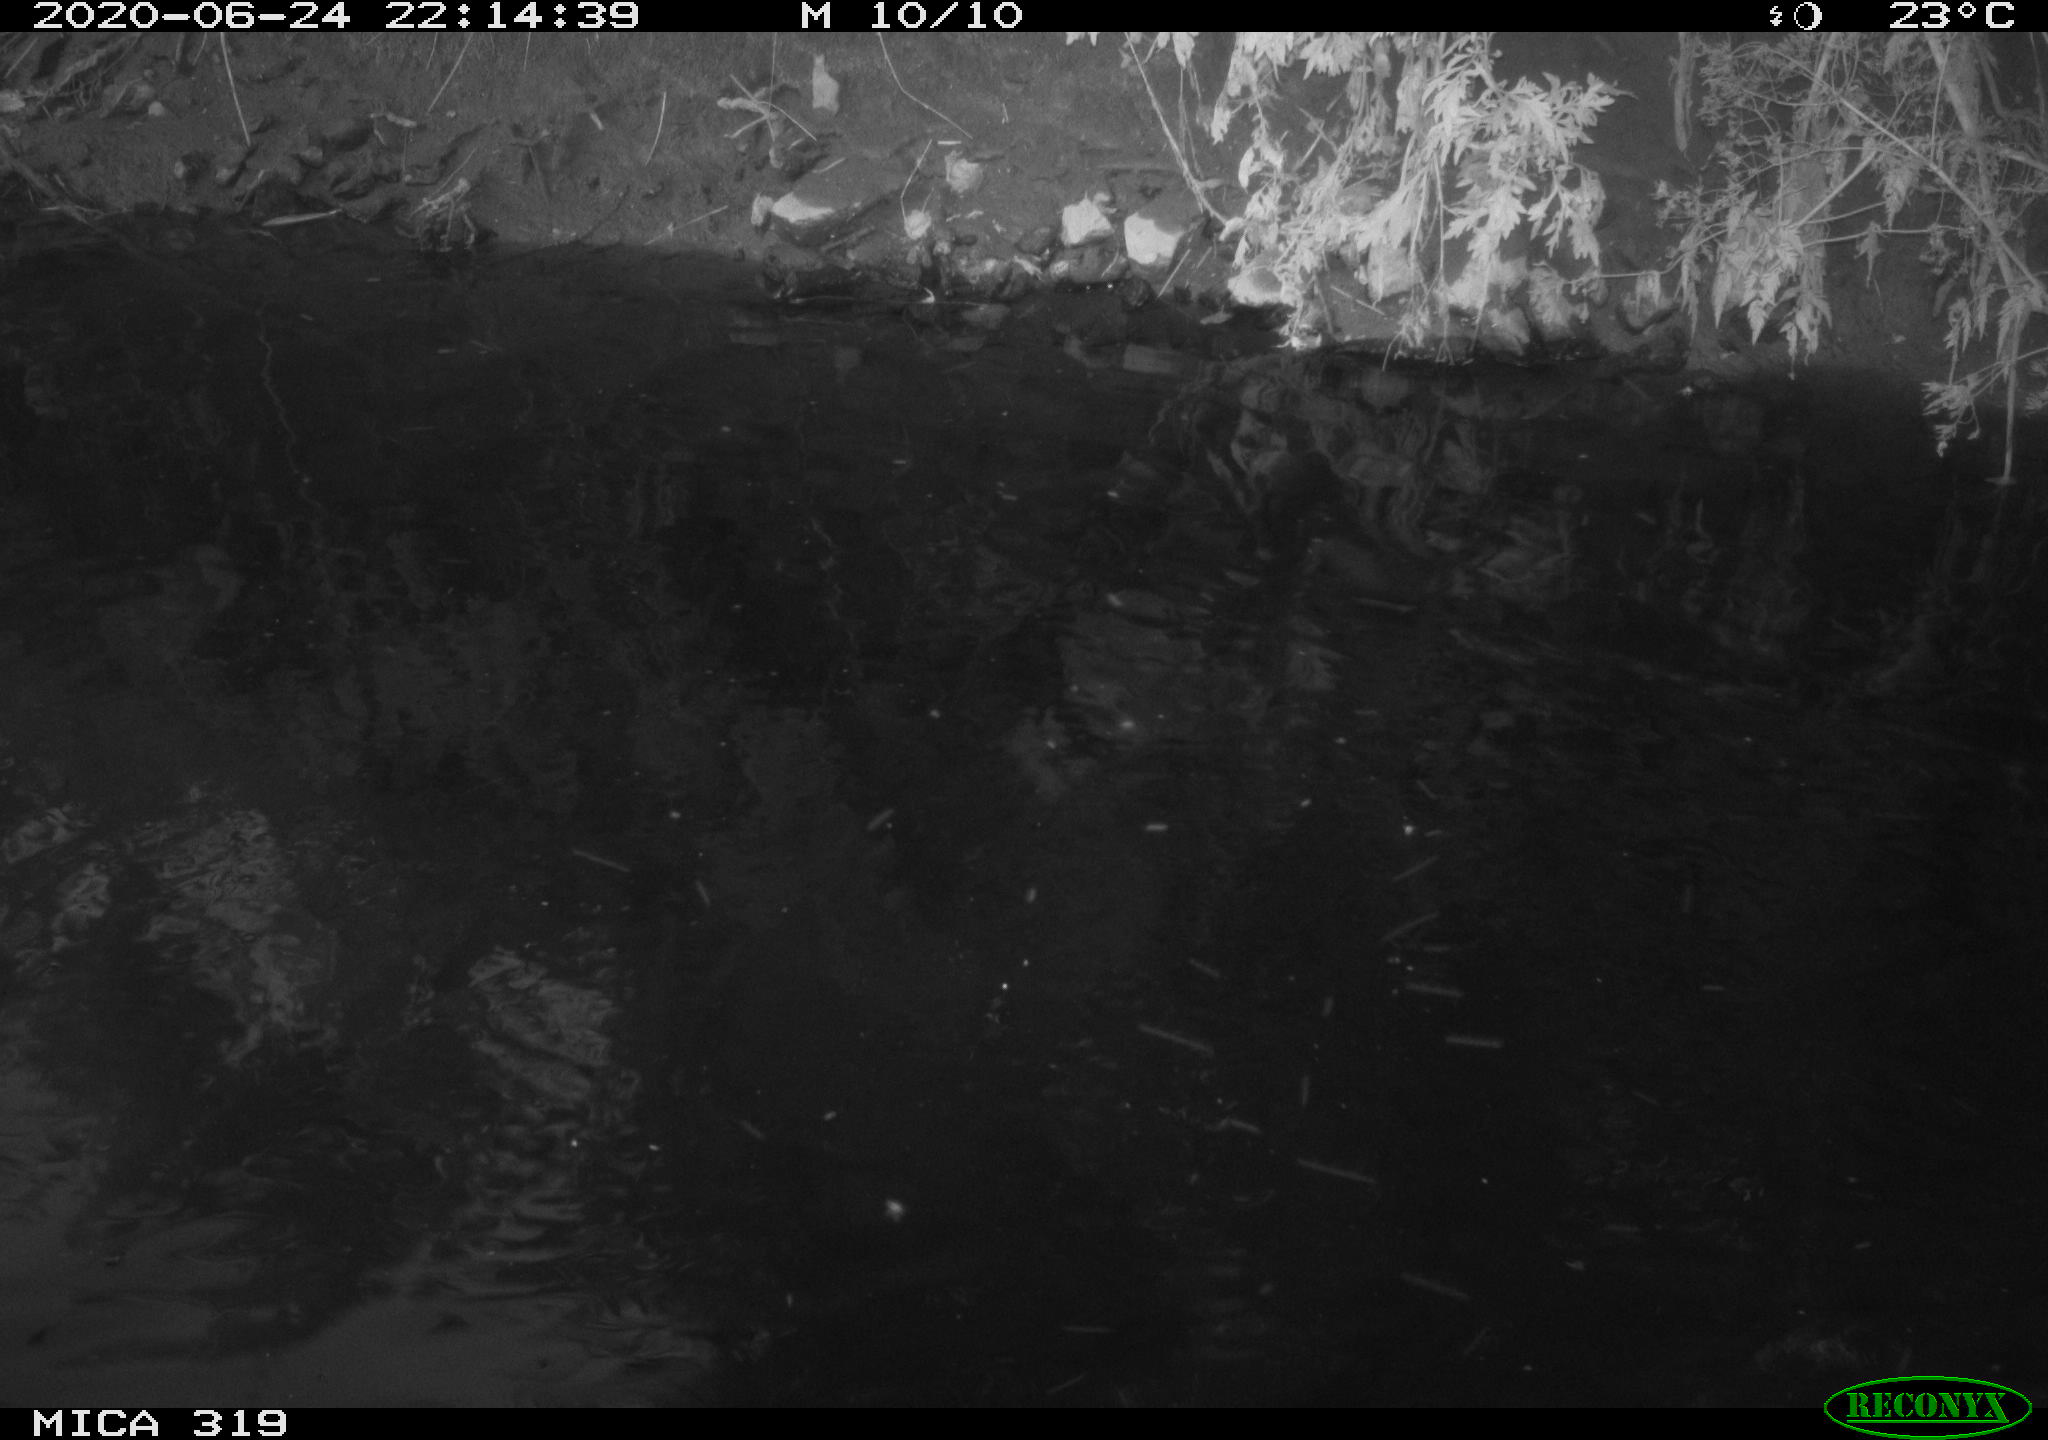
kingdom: Animalia
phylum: Chordata
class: Aves
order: Anseriformes
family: Anatidae
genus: Anas
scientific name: Anas platyrhynchos
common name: Mallard
